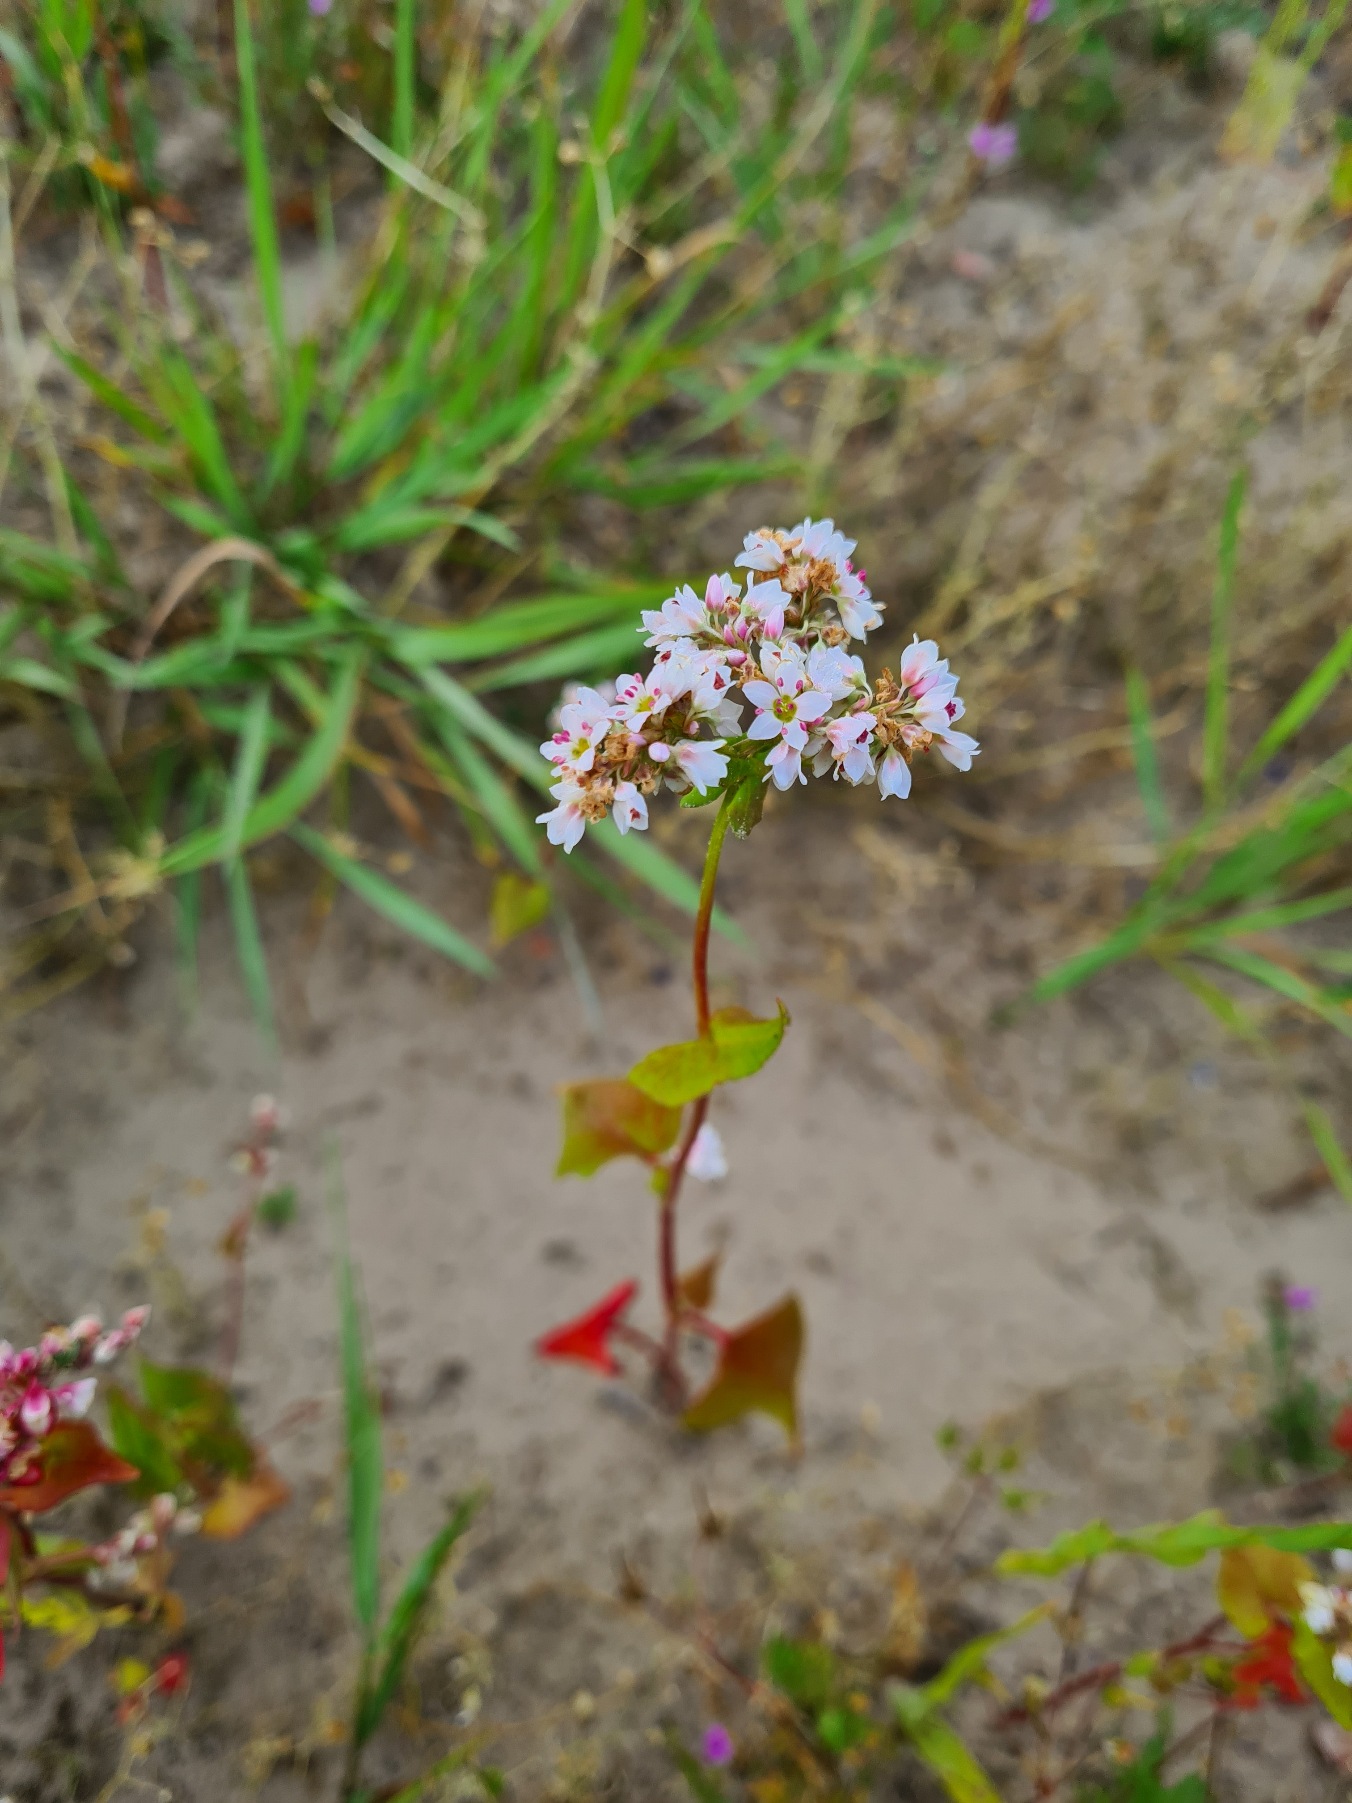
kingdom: Plantae
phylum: Tracheophyta
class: Magnoliopsida
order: Caryophyllales
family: Polygonaceae
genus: Fagopyrum
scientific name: Fagopyrum esculentum
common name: Almindelig boghvede
